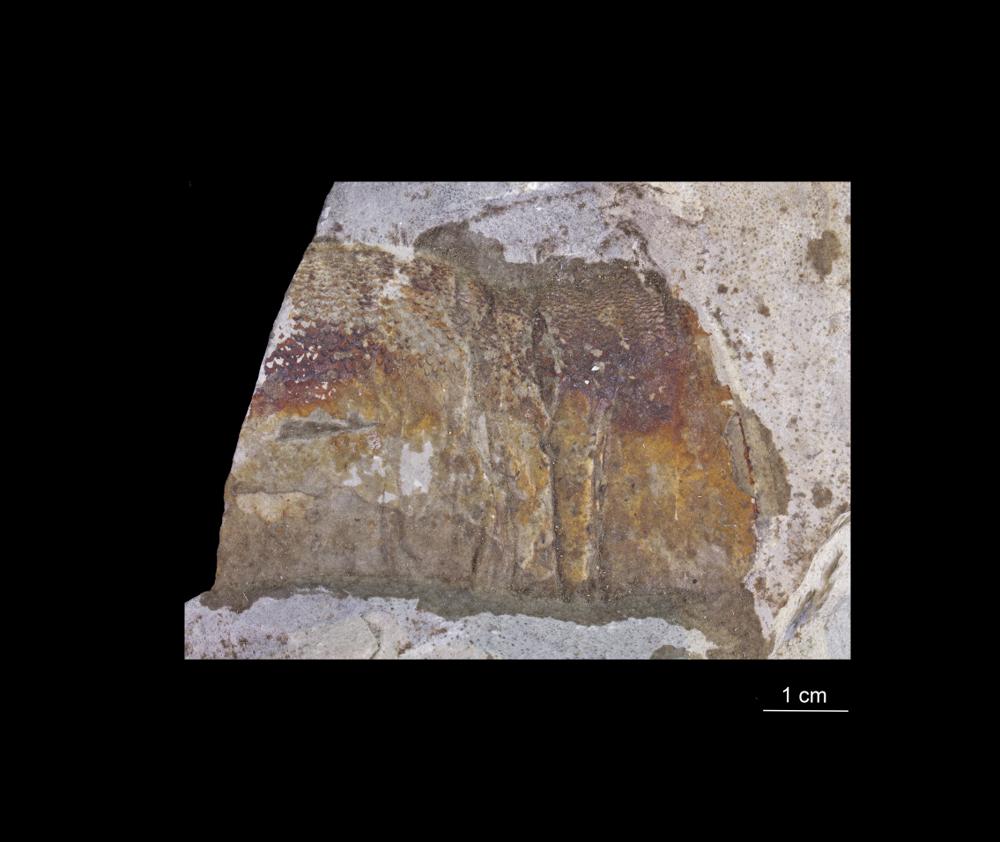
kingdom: Animalia
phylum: Chordata
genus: Pterygotus
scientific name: Pterygotus
